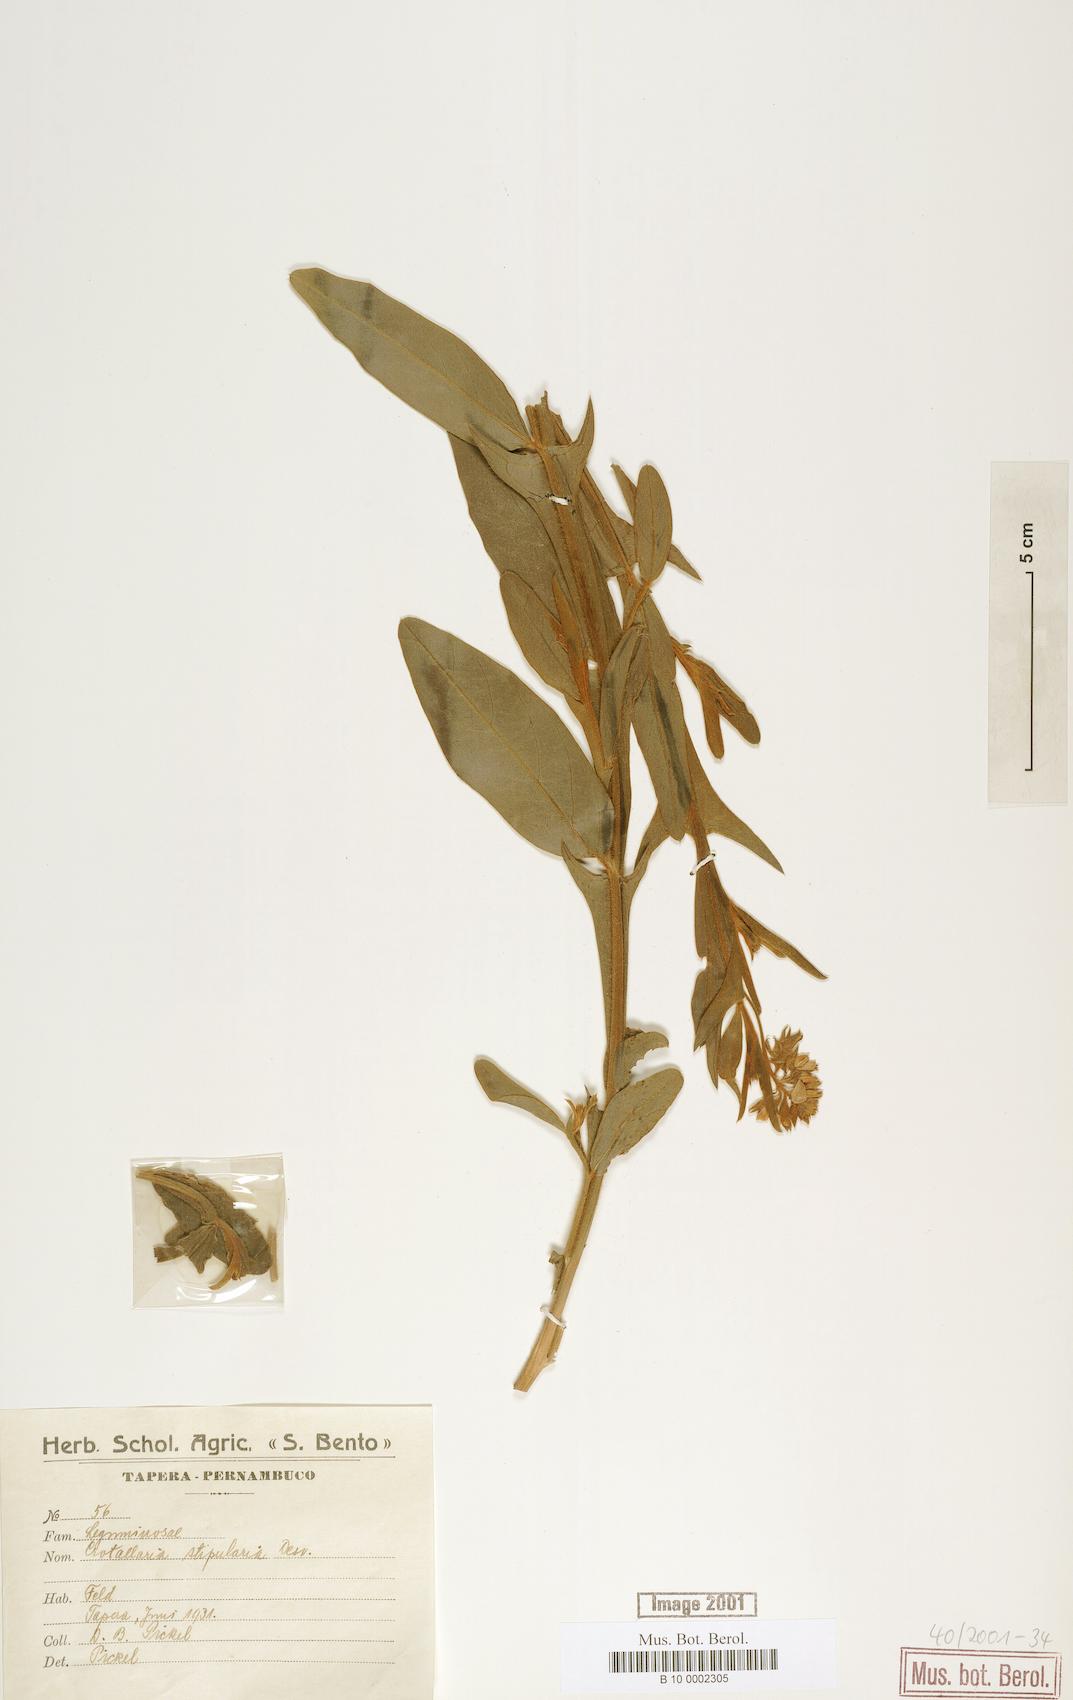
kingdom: Plantae
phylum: Tracheophyta
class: Magnoliopsida
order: Fabales
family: Fabaceae
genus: Crotalaria
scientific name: Crotalaria stipularia
